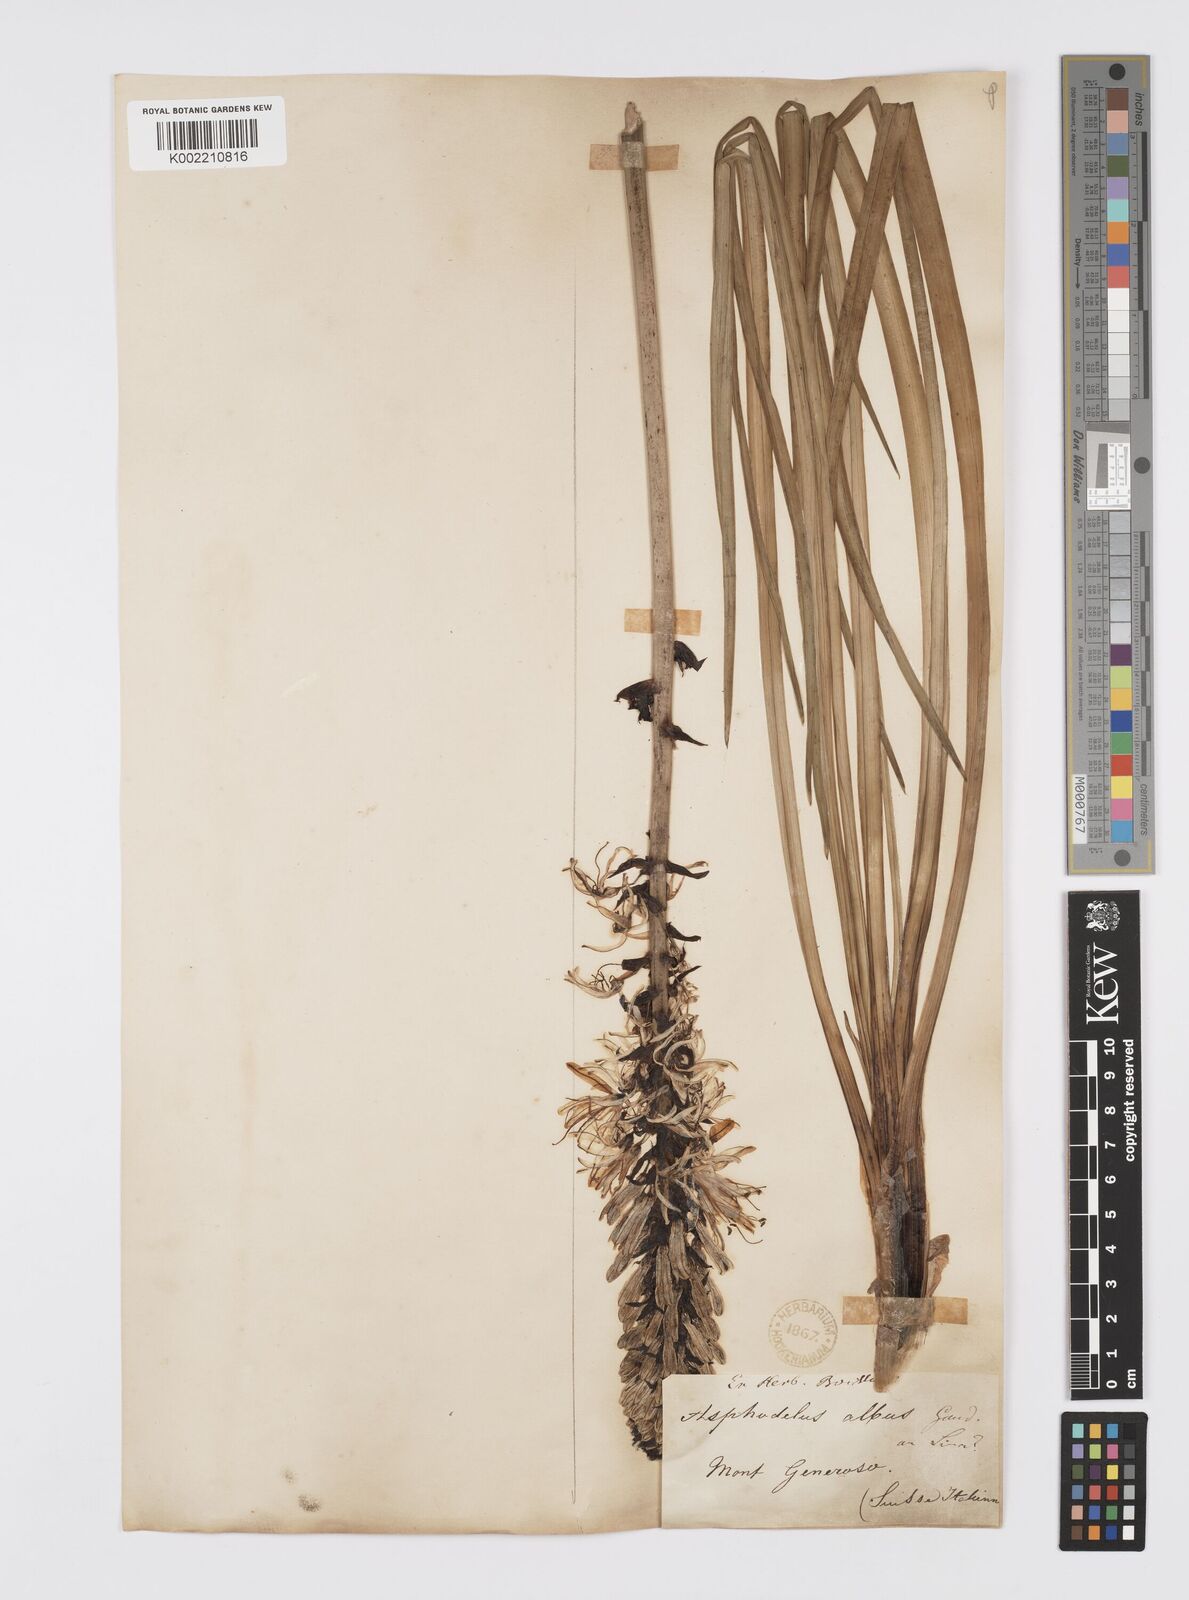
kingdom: Plantae
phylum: Tracheophyta
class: Liliopsida
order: Asparagales
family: Asphodelaceae
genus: Asphodelus
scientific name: Asphodelus albus
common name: White asphodel
